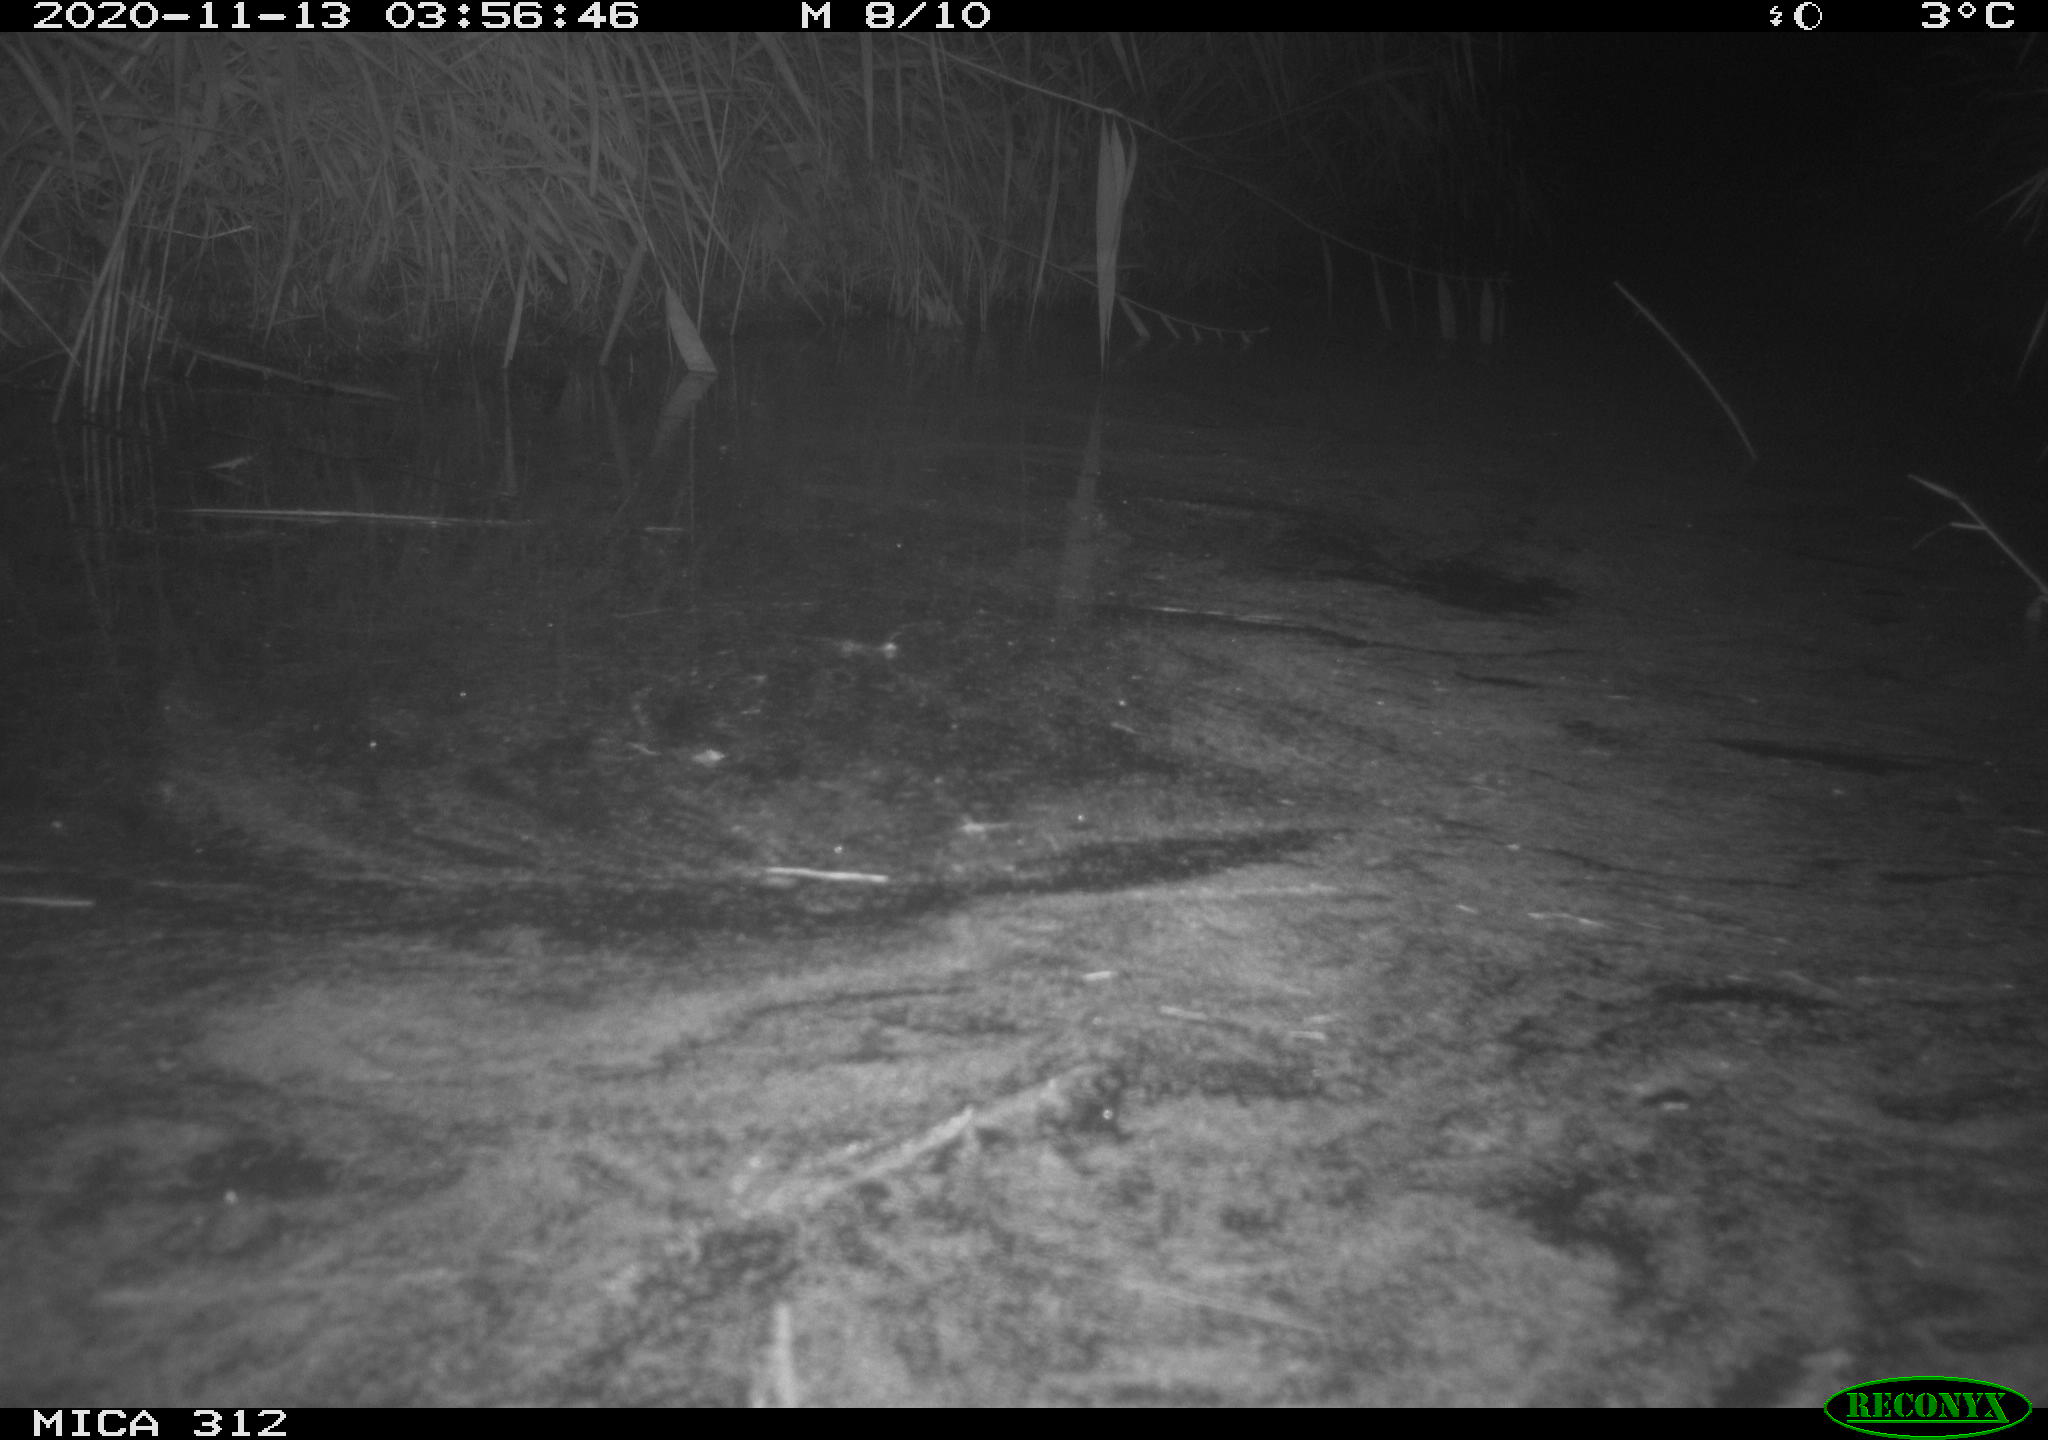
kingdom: Animalia
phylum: Chordata
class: Mammalia
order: Rodentia
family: Muridae
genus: Rattus
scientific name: Rattus norvegicus
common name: Brown rat
